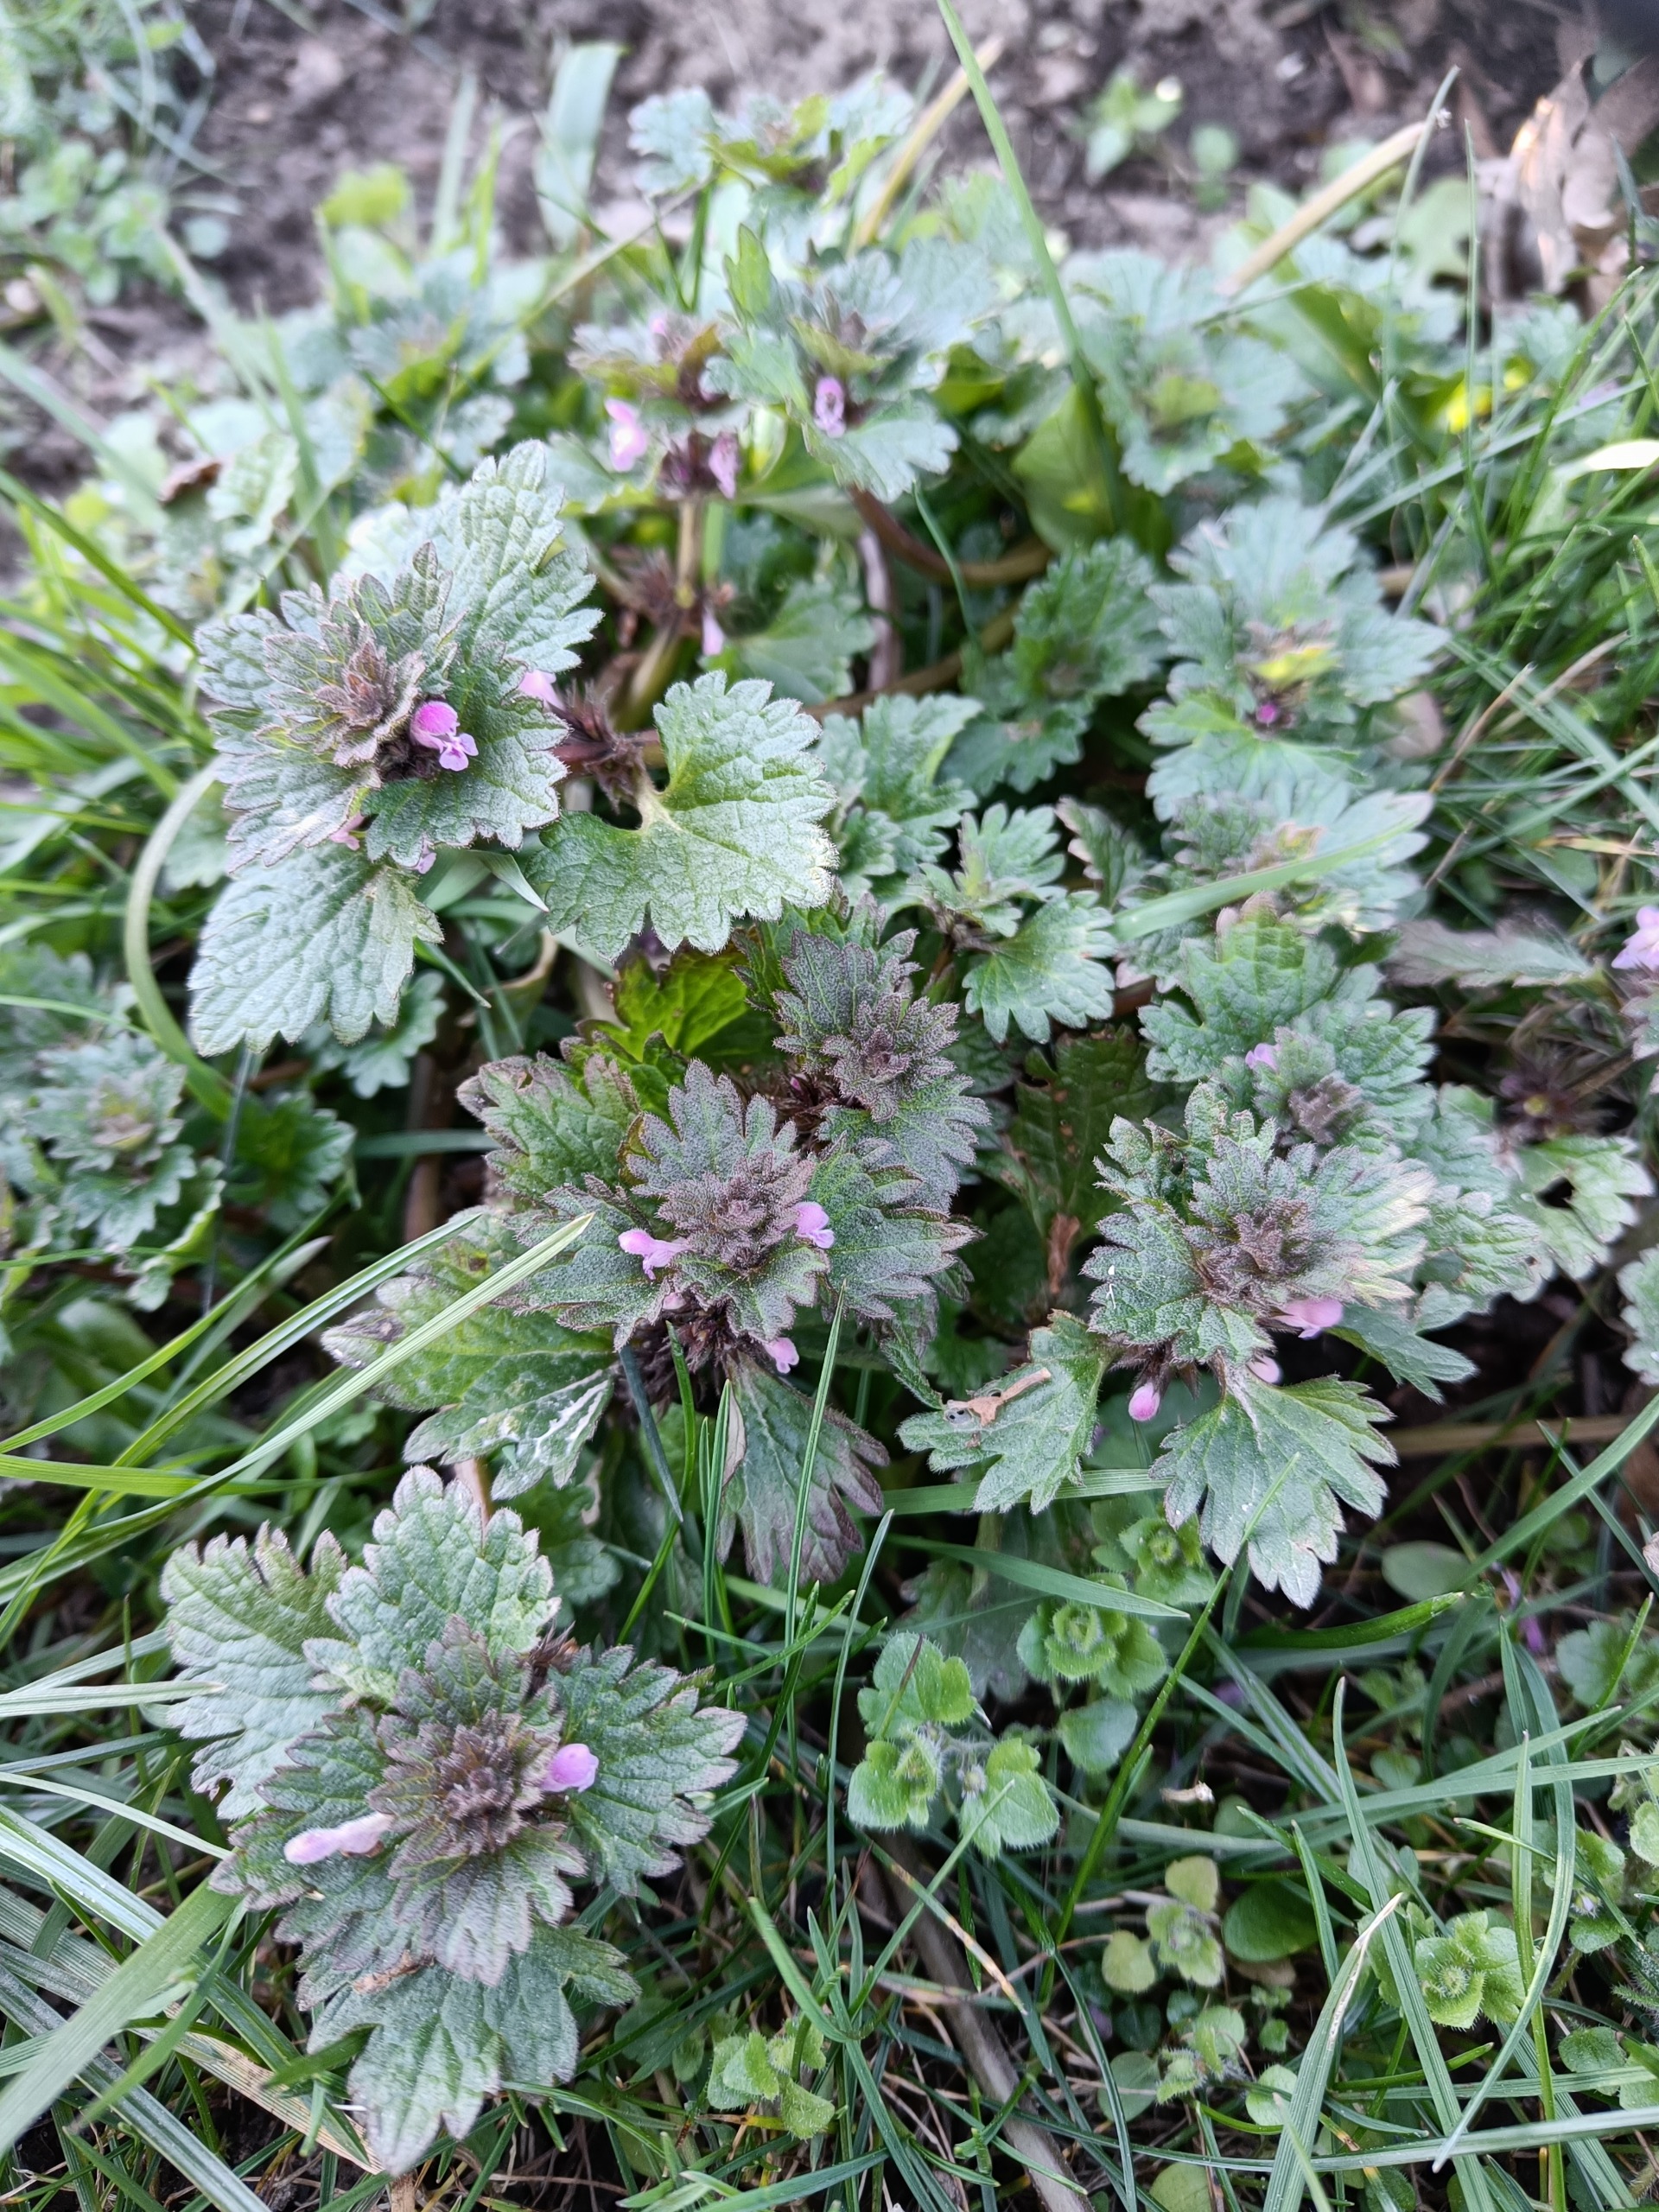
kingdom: Plantae
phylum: Tracheophyta
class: Magnoliopsida
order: Lamiales
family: Lamiaceae
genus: Lamium
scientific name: Lamium hybridum
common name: Fliget tvetand
